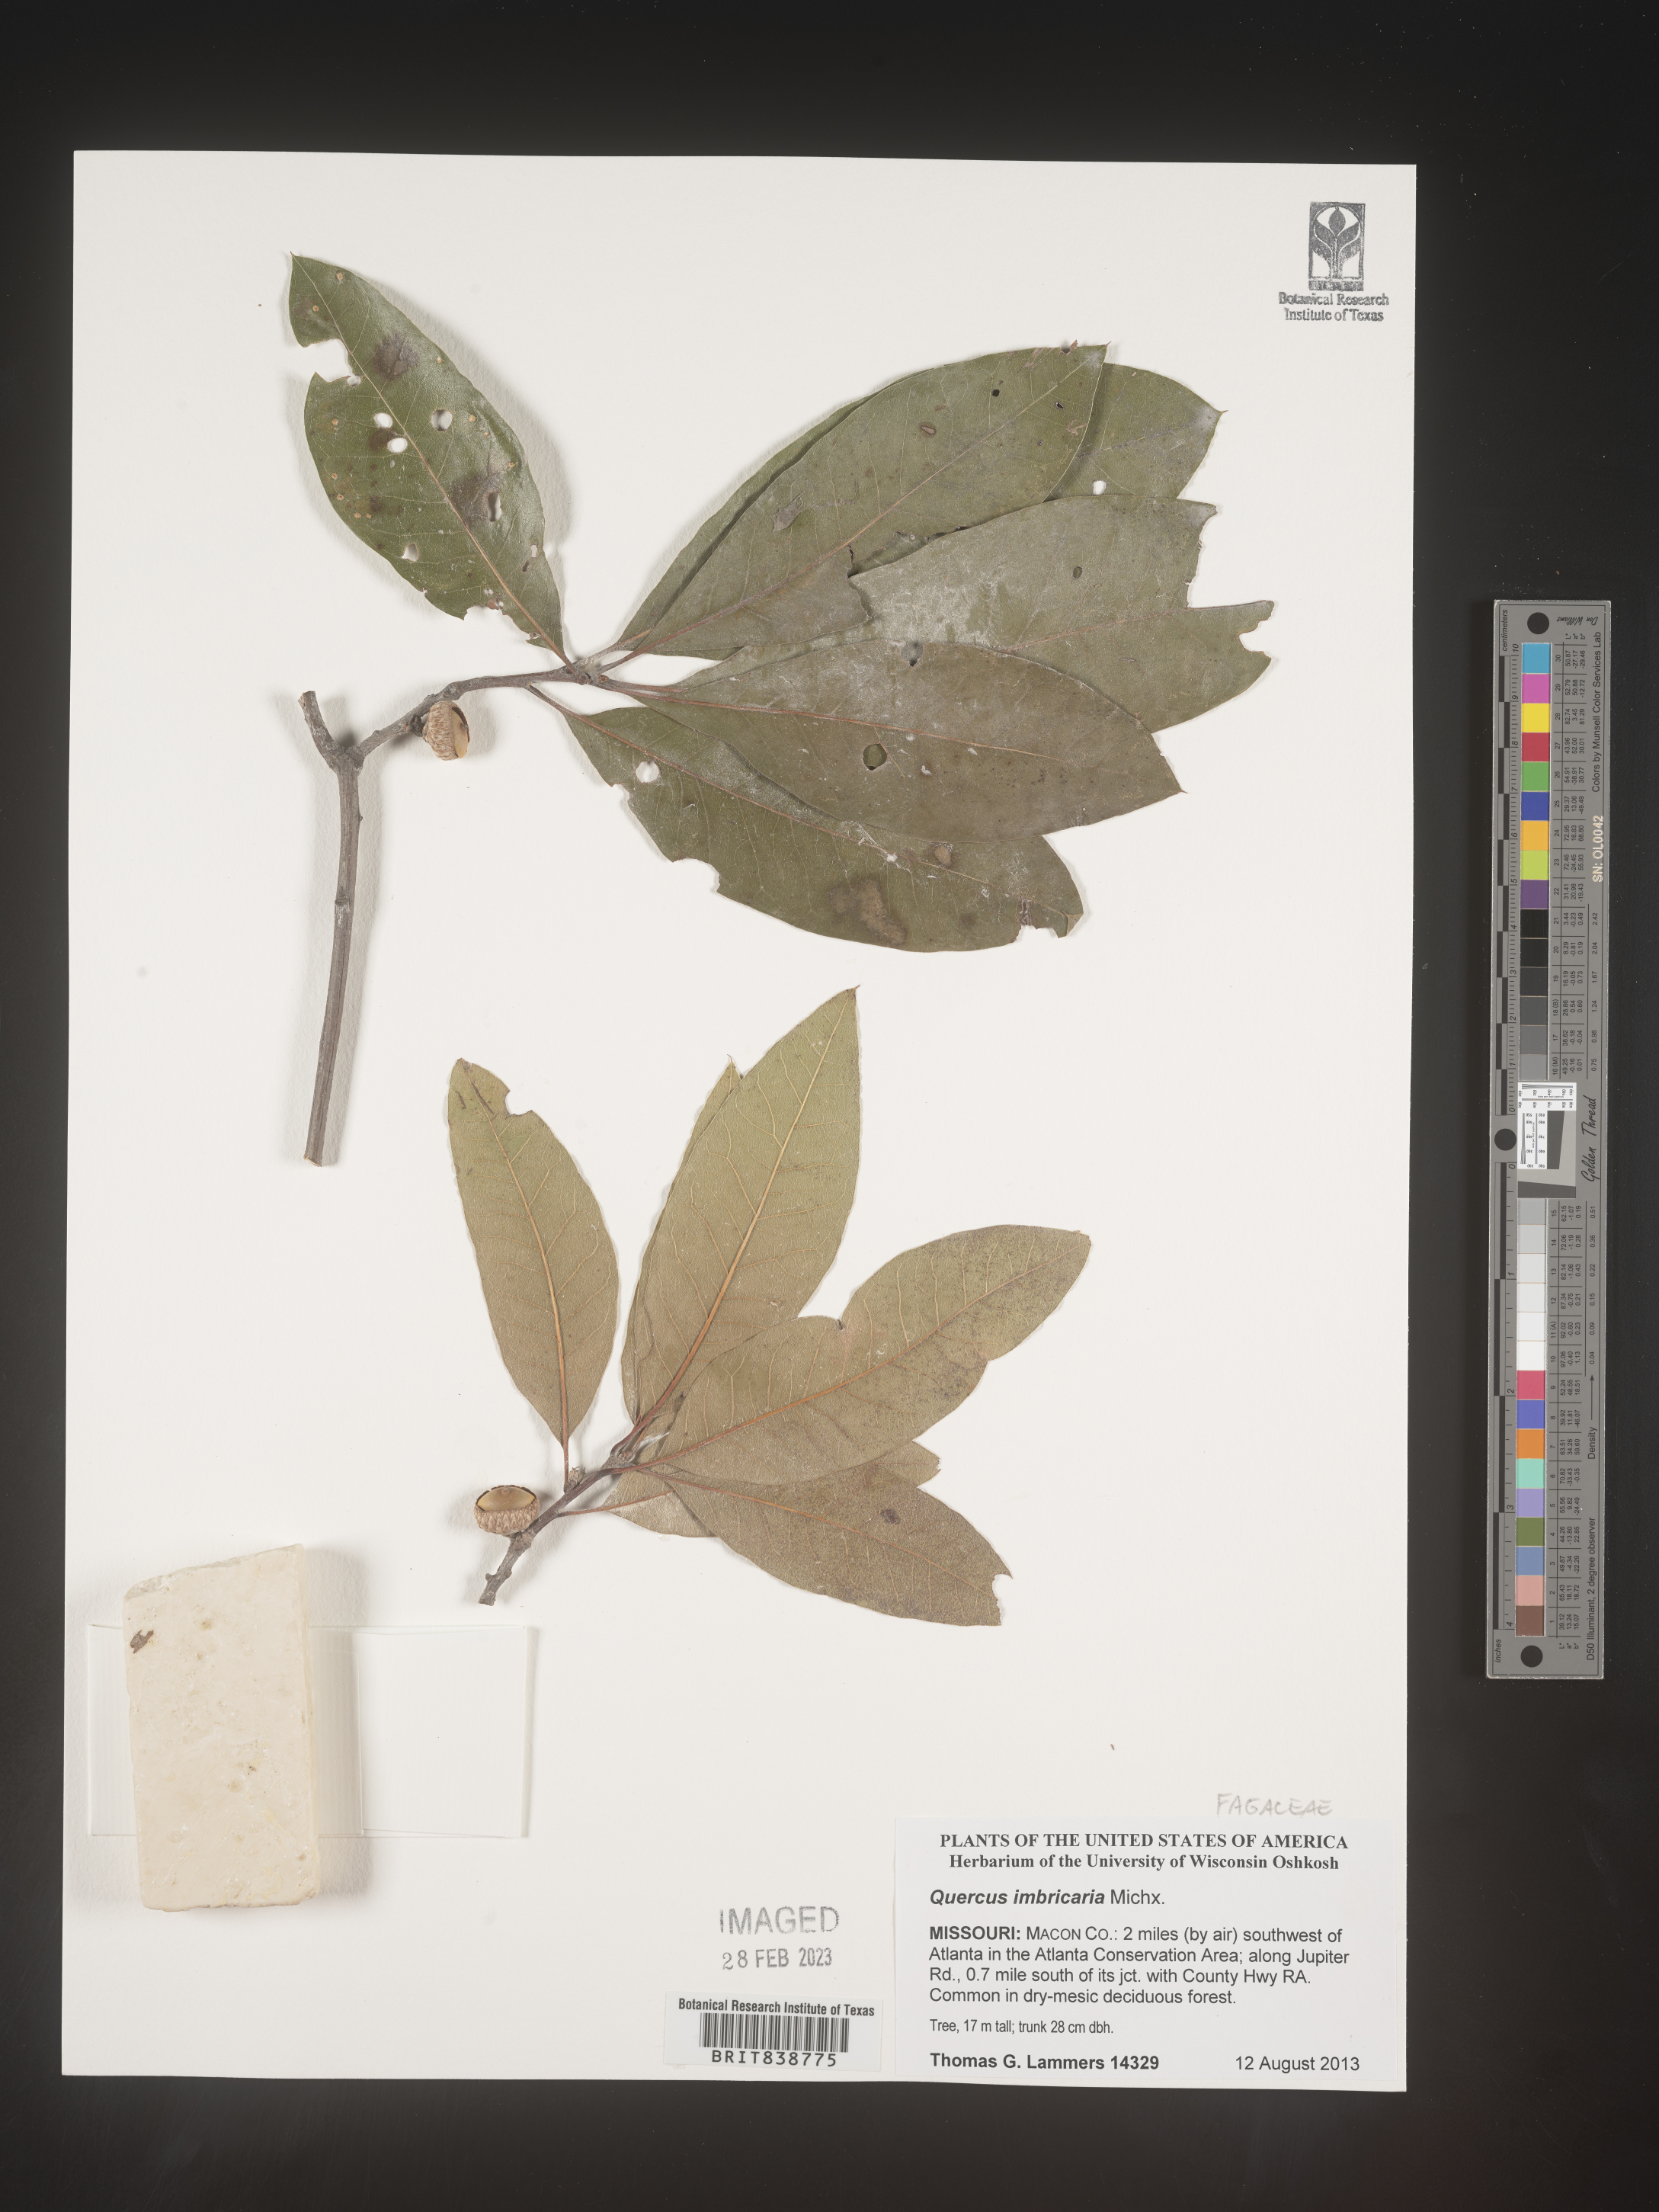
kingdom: Plantae
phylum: Tracheophyta
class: Magnoliopsida
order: Fagales
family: Fagaceae
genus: Quercus
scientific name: Quercus imbricaria
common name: Shingle oak
